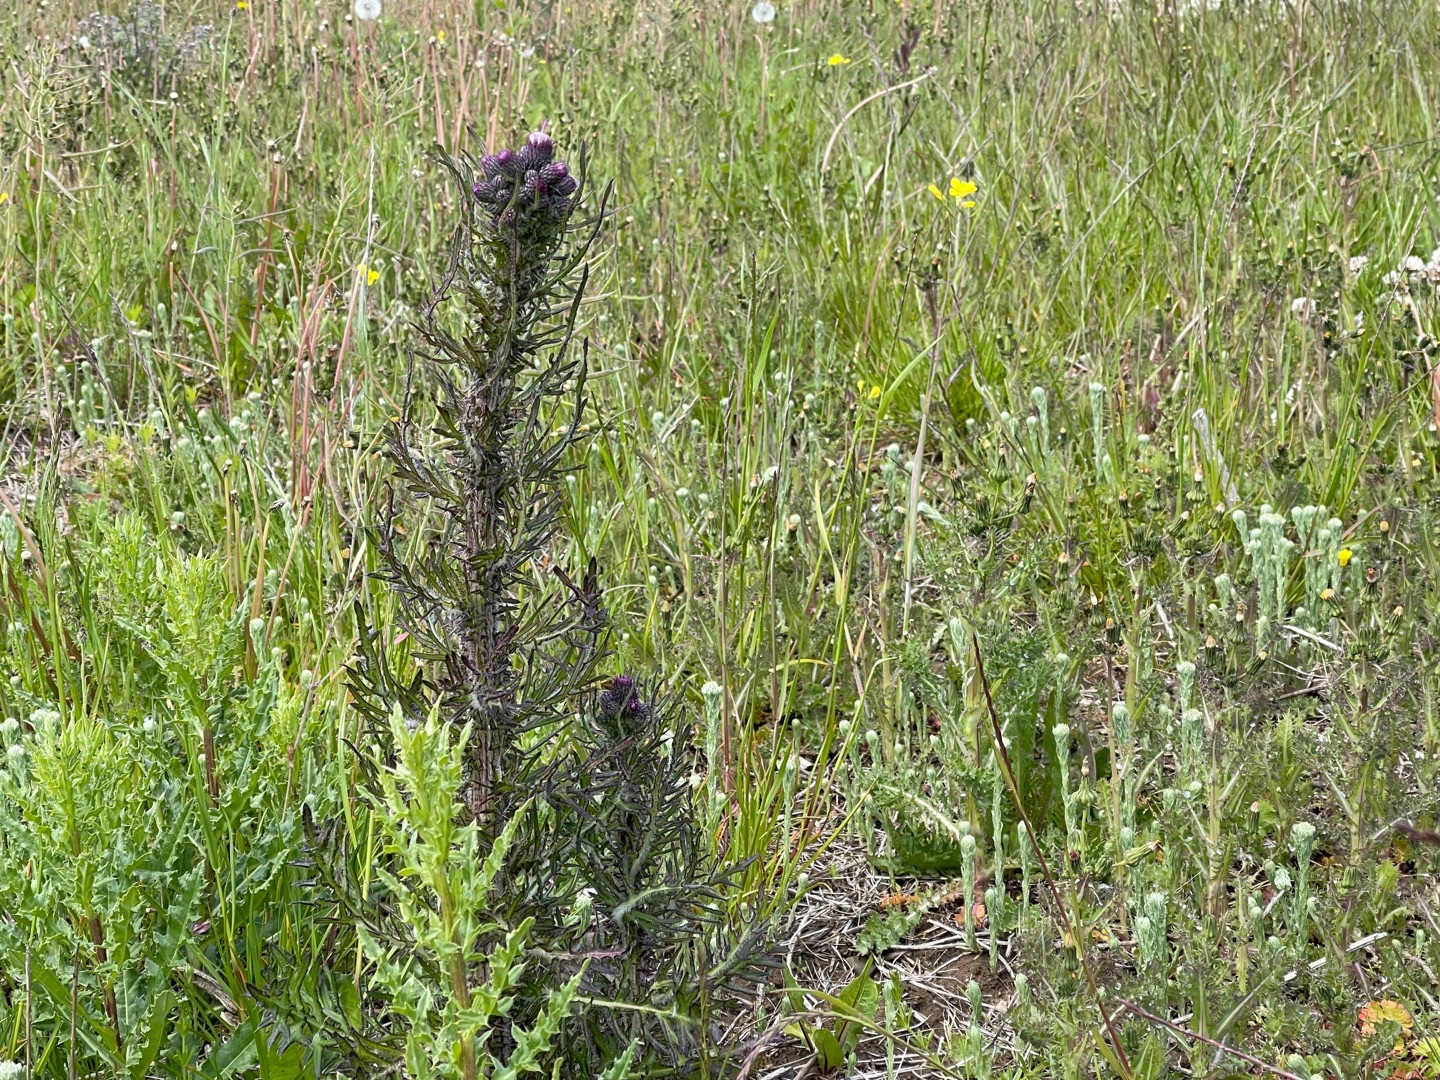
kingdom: Plantae
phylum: Tracheophyta
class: Magnoliopsida
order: Asterales
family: Asteraceae
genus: Cirsium
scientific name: Cirsium palustre
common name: Kær-tidsel
